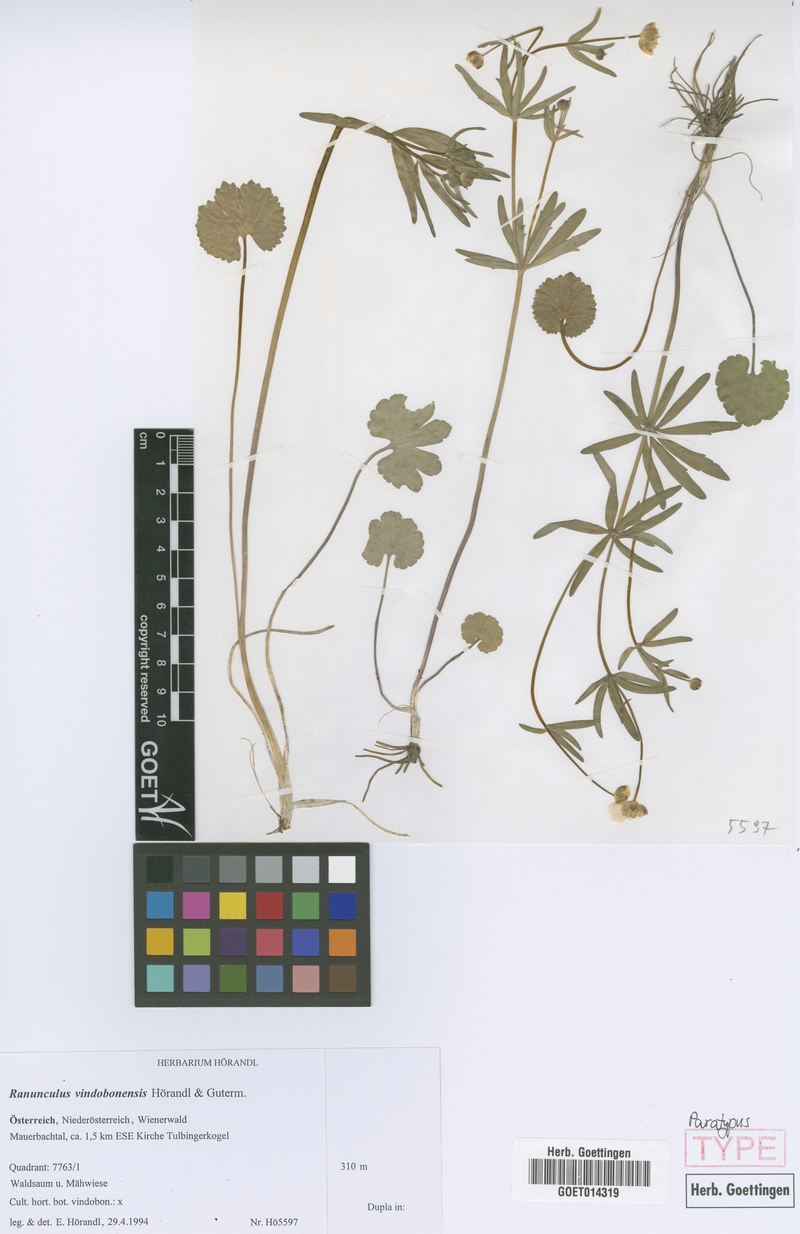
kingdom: Plantae
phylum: Tracheophyta
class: Magnoliopsida
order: Ranunculales
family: Ranunculaceae
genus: Ranunculus
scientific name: Ranunculus vindobonensis
